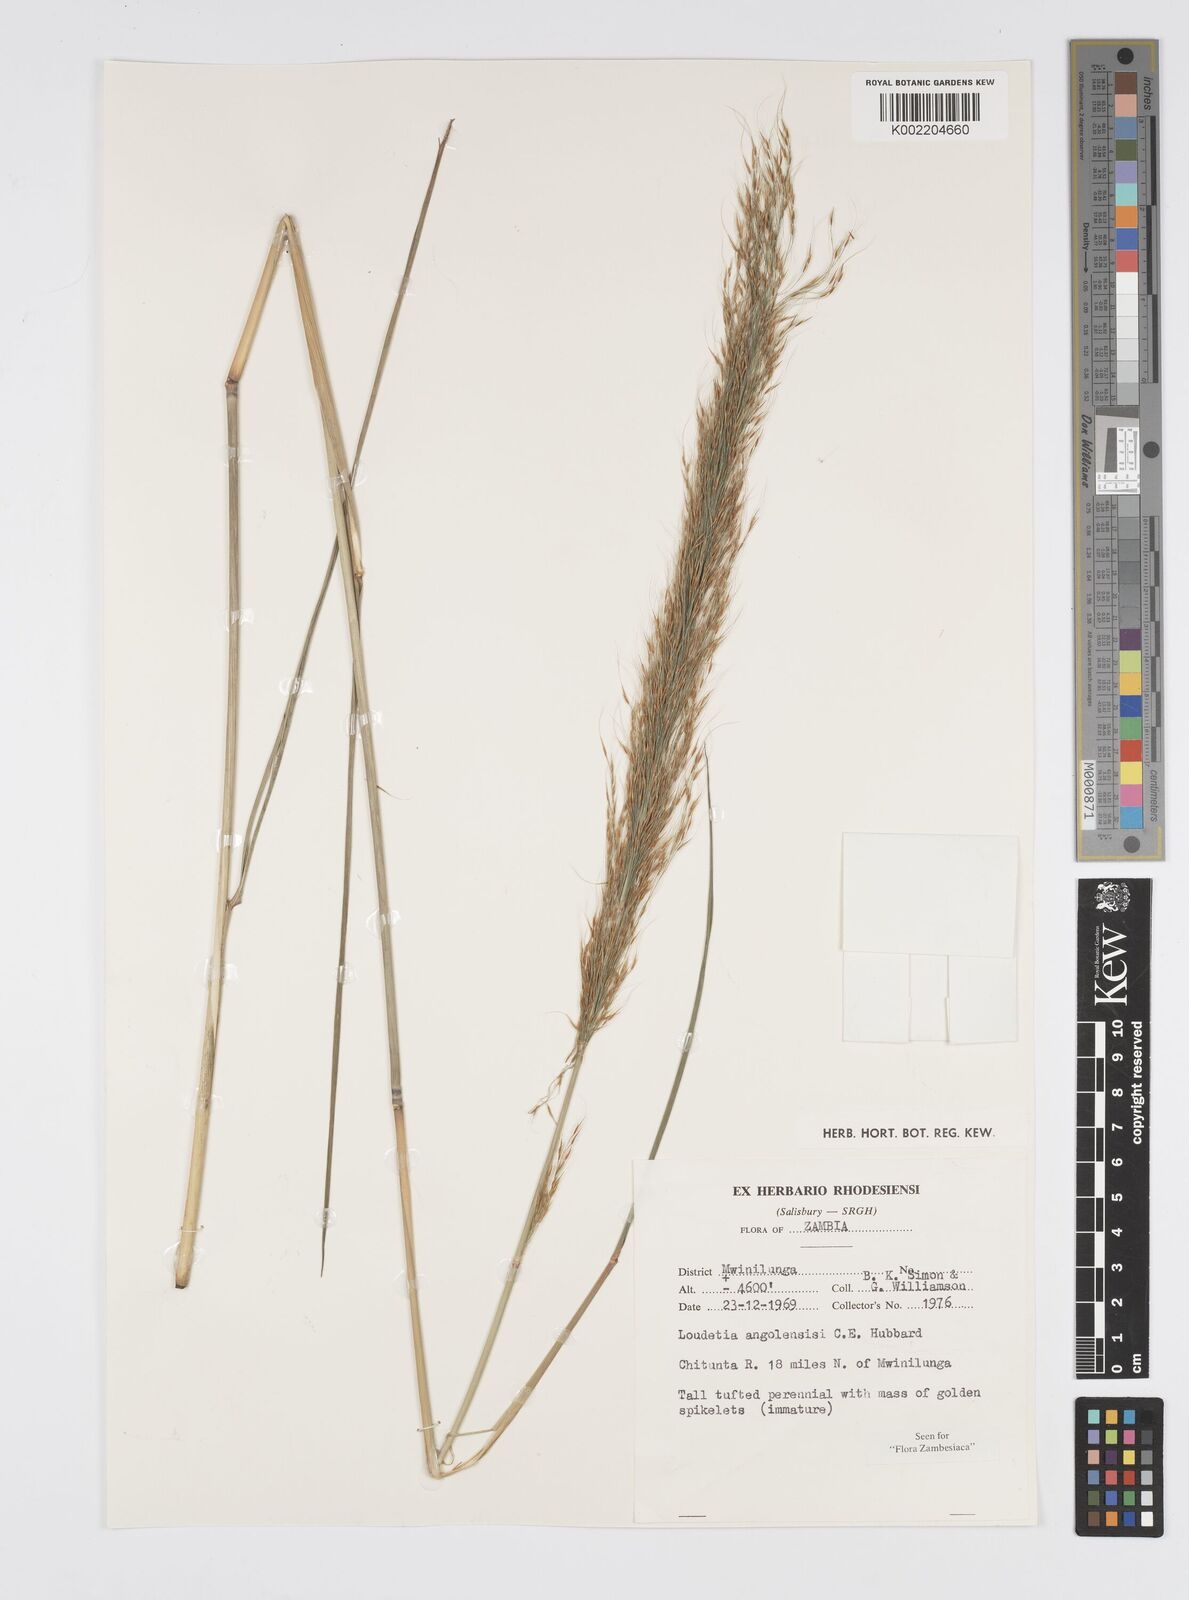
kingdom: Plantae
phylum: Tracheophyta
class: Liliopsida
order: Poales
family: Poaceae
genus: Loudetia
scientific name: Loudetia angolensis
